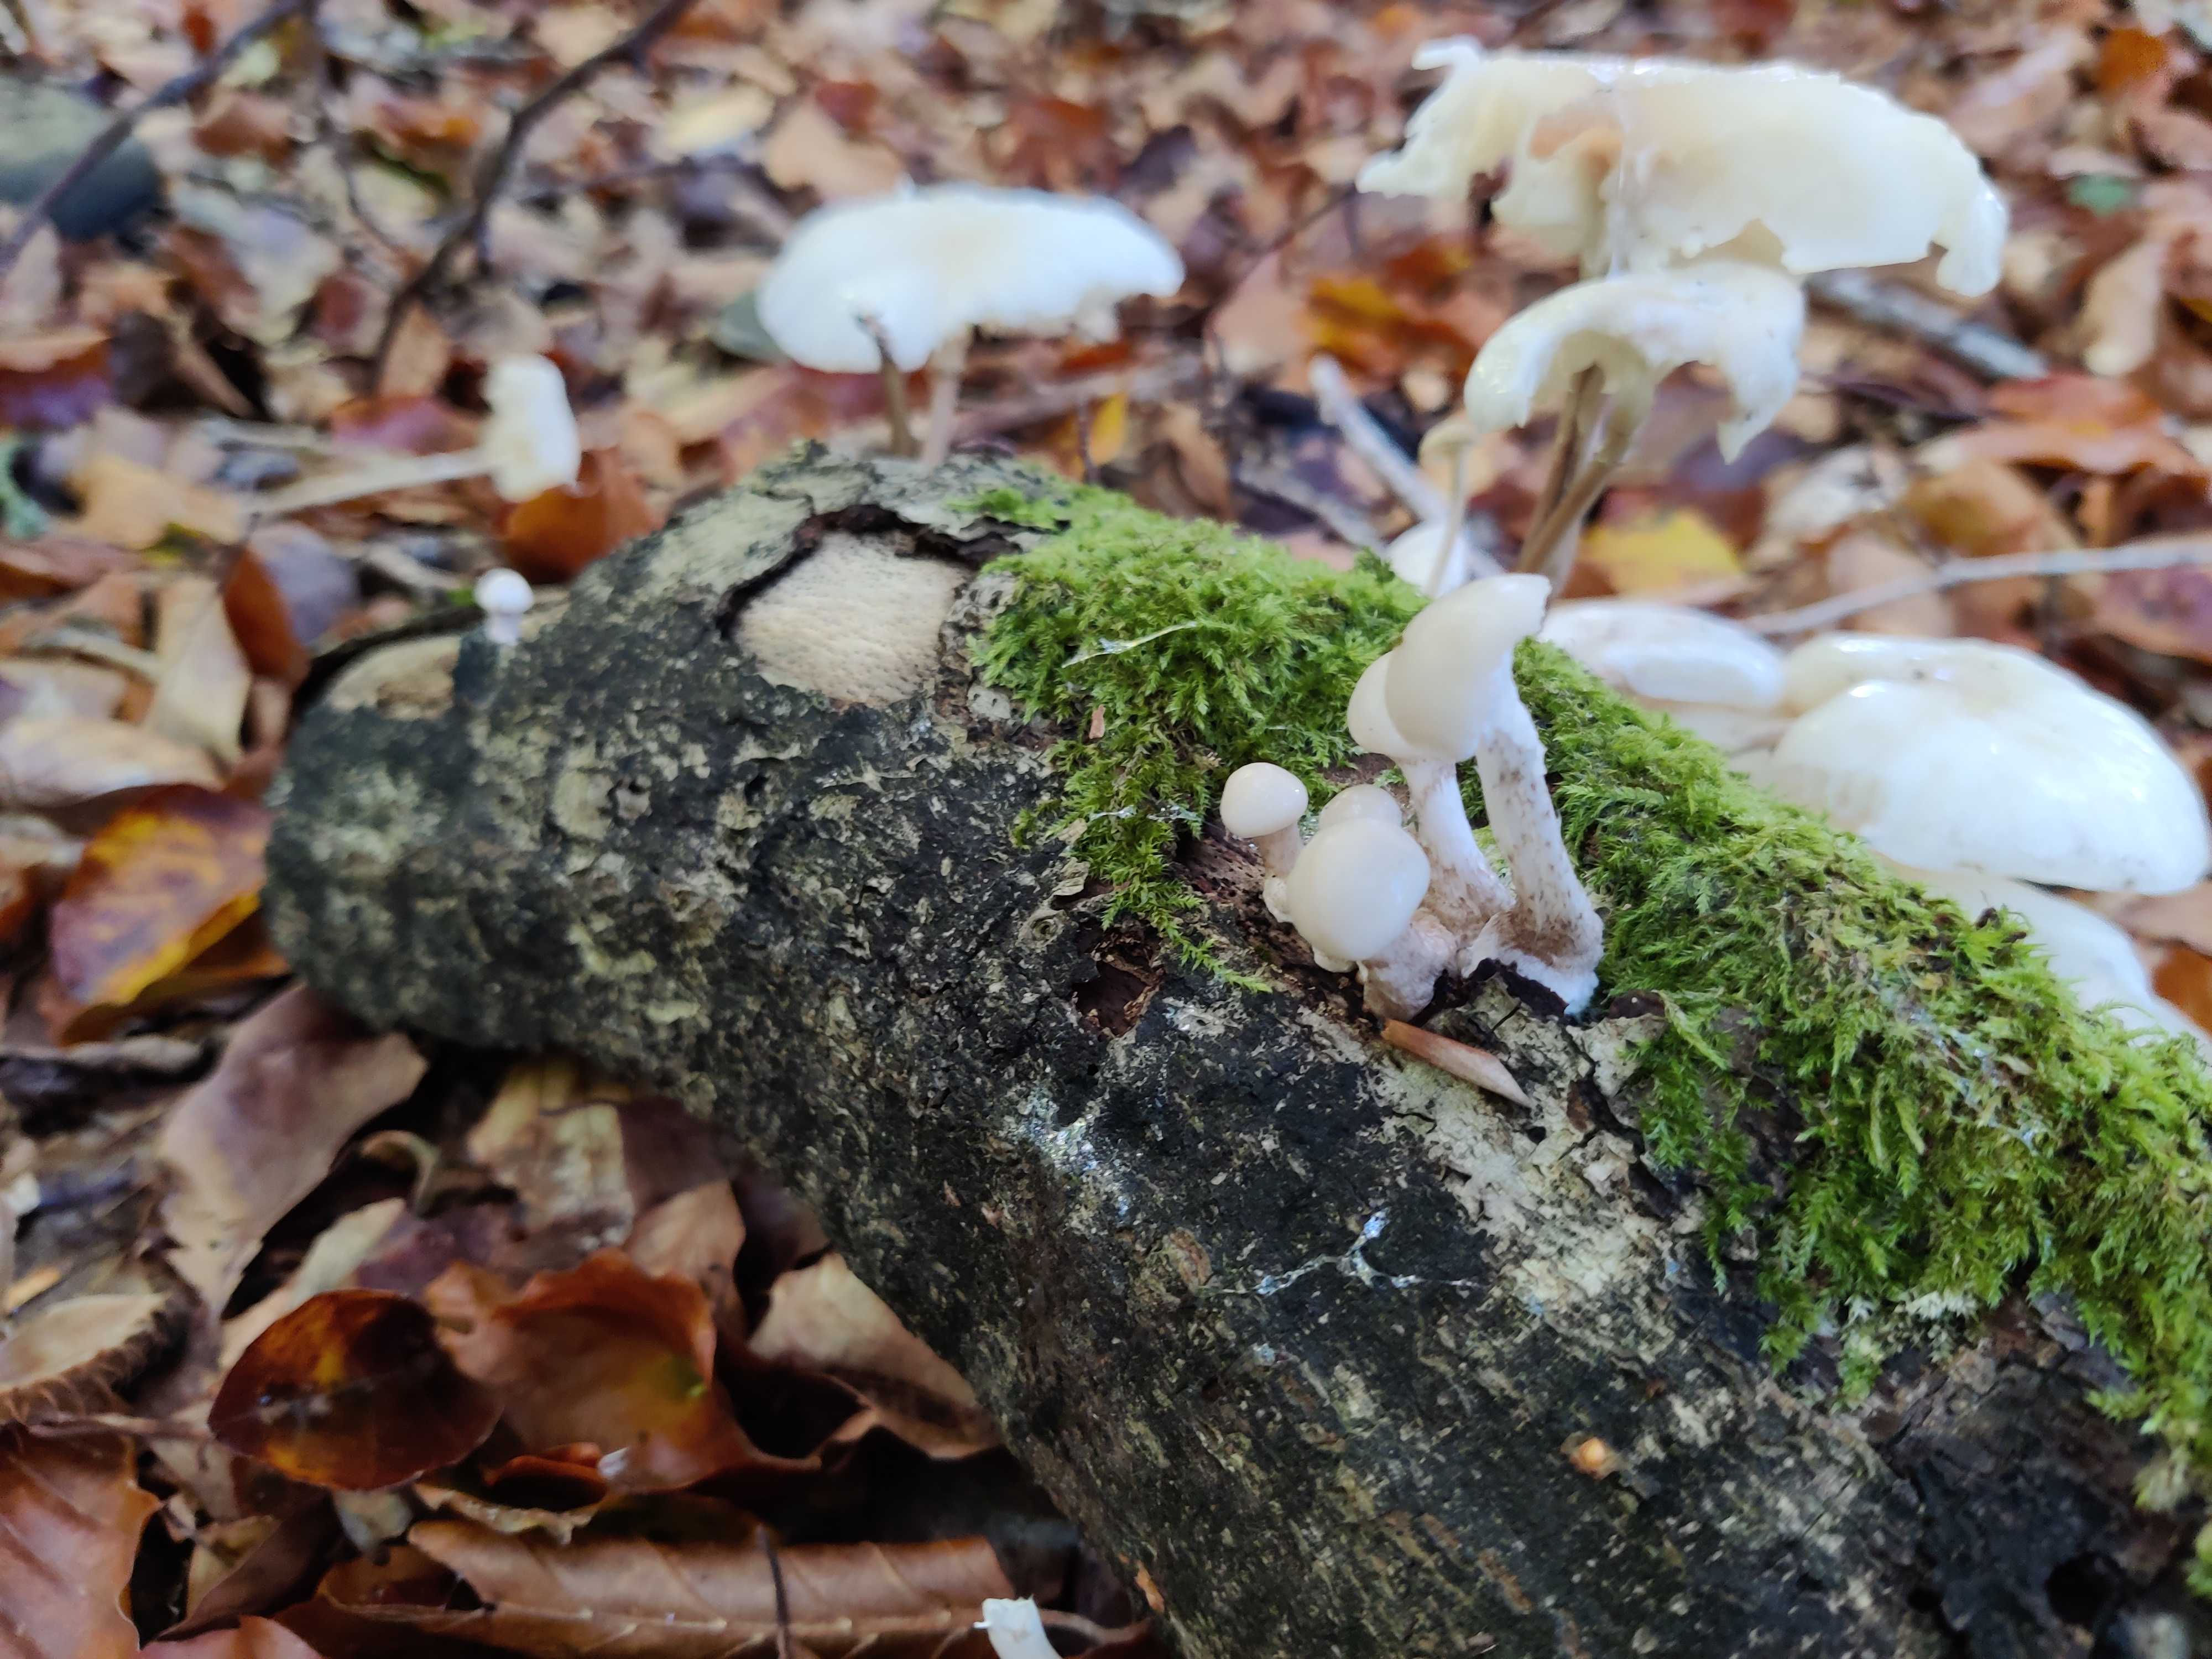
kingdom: Fungi
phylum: Basidiomycota
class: Agaricomycetes
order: Agaricales
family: Physalacriaceae
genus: Mucidula
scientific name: Mucidula mucida
